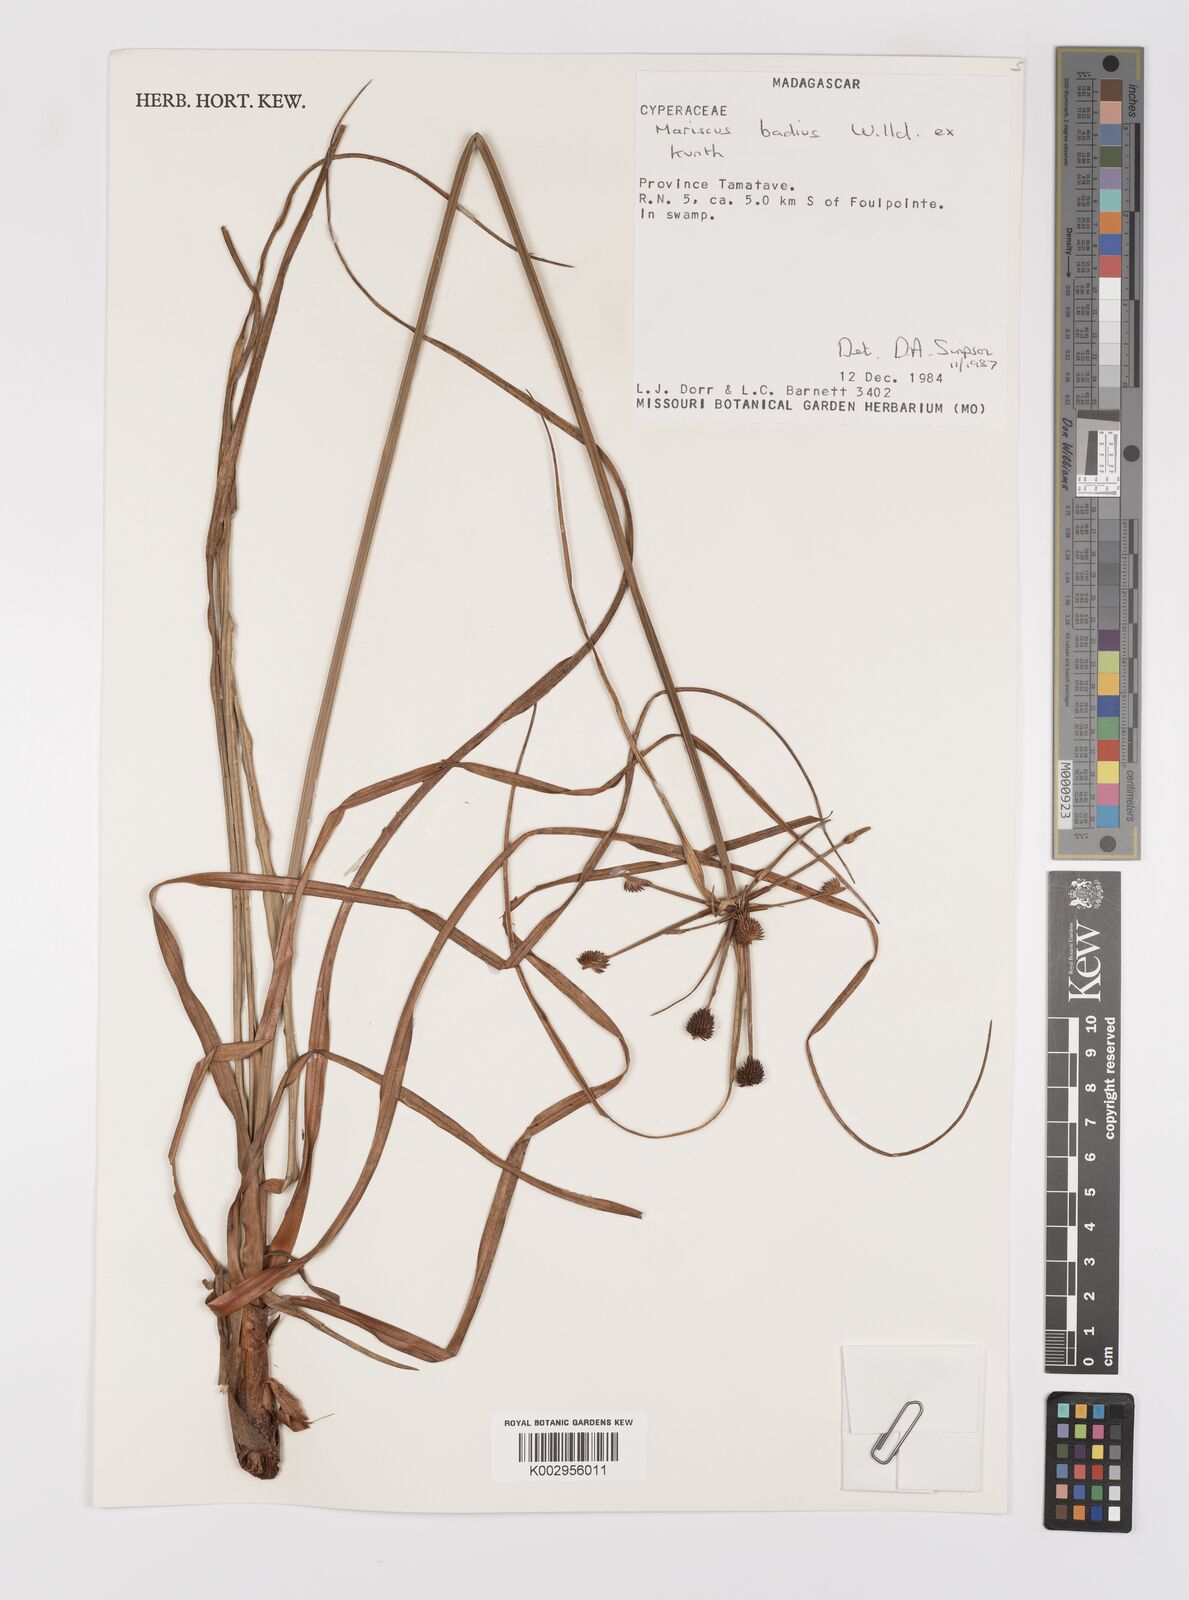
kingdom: Plantae
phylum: Tracheophyta
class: Liliopsida
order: Poales
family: Cyperaceae
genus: Cyperus
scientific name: Cyperus subbadius
